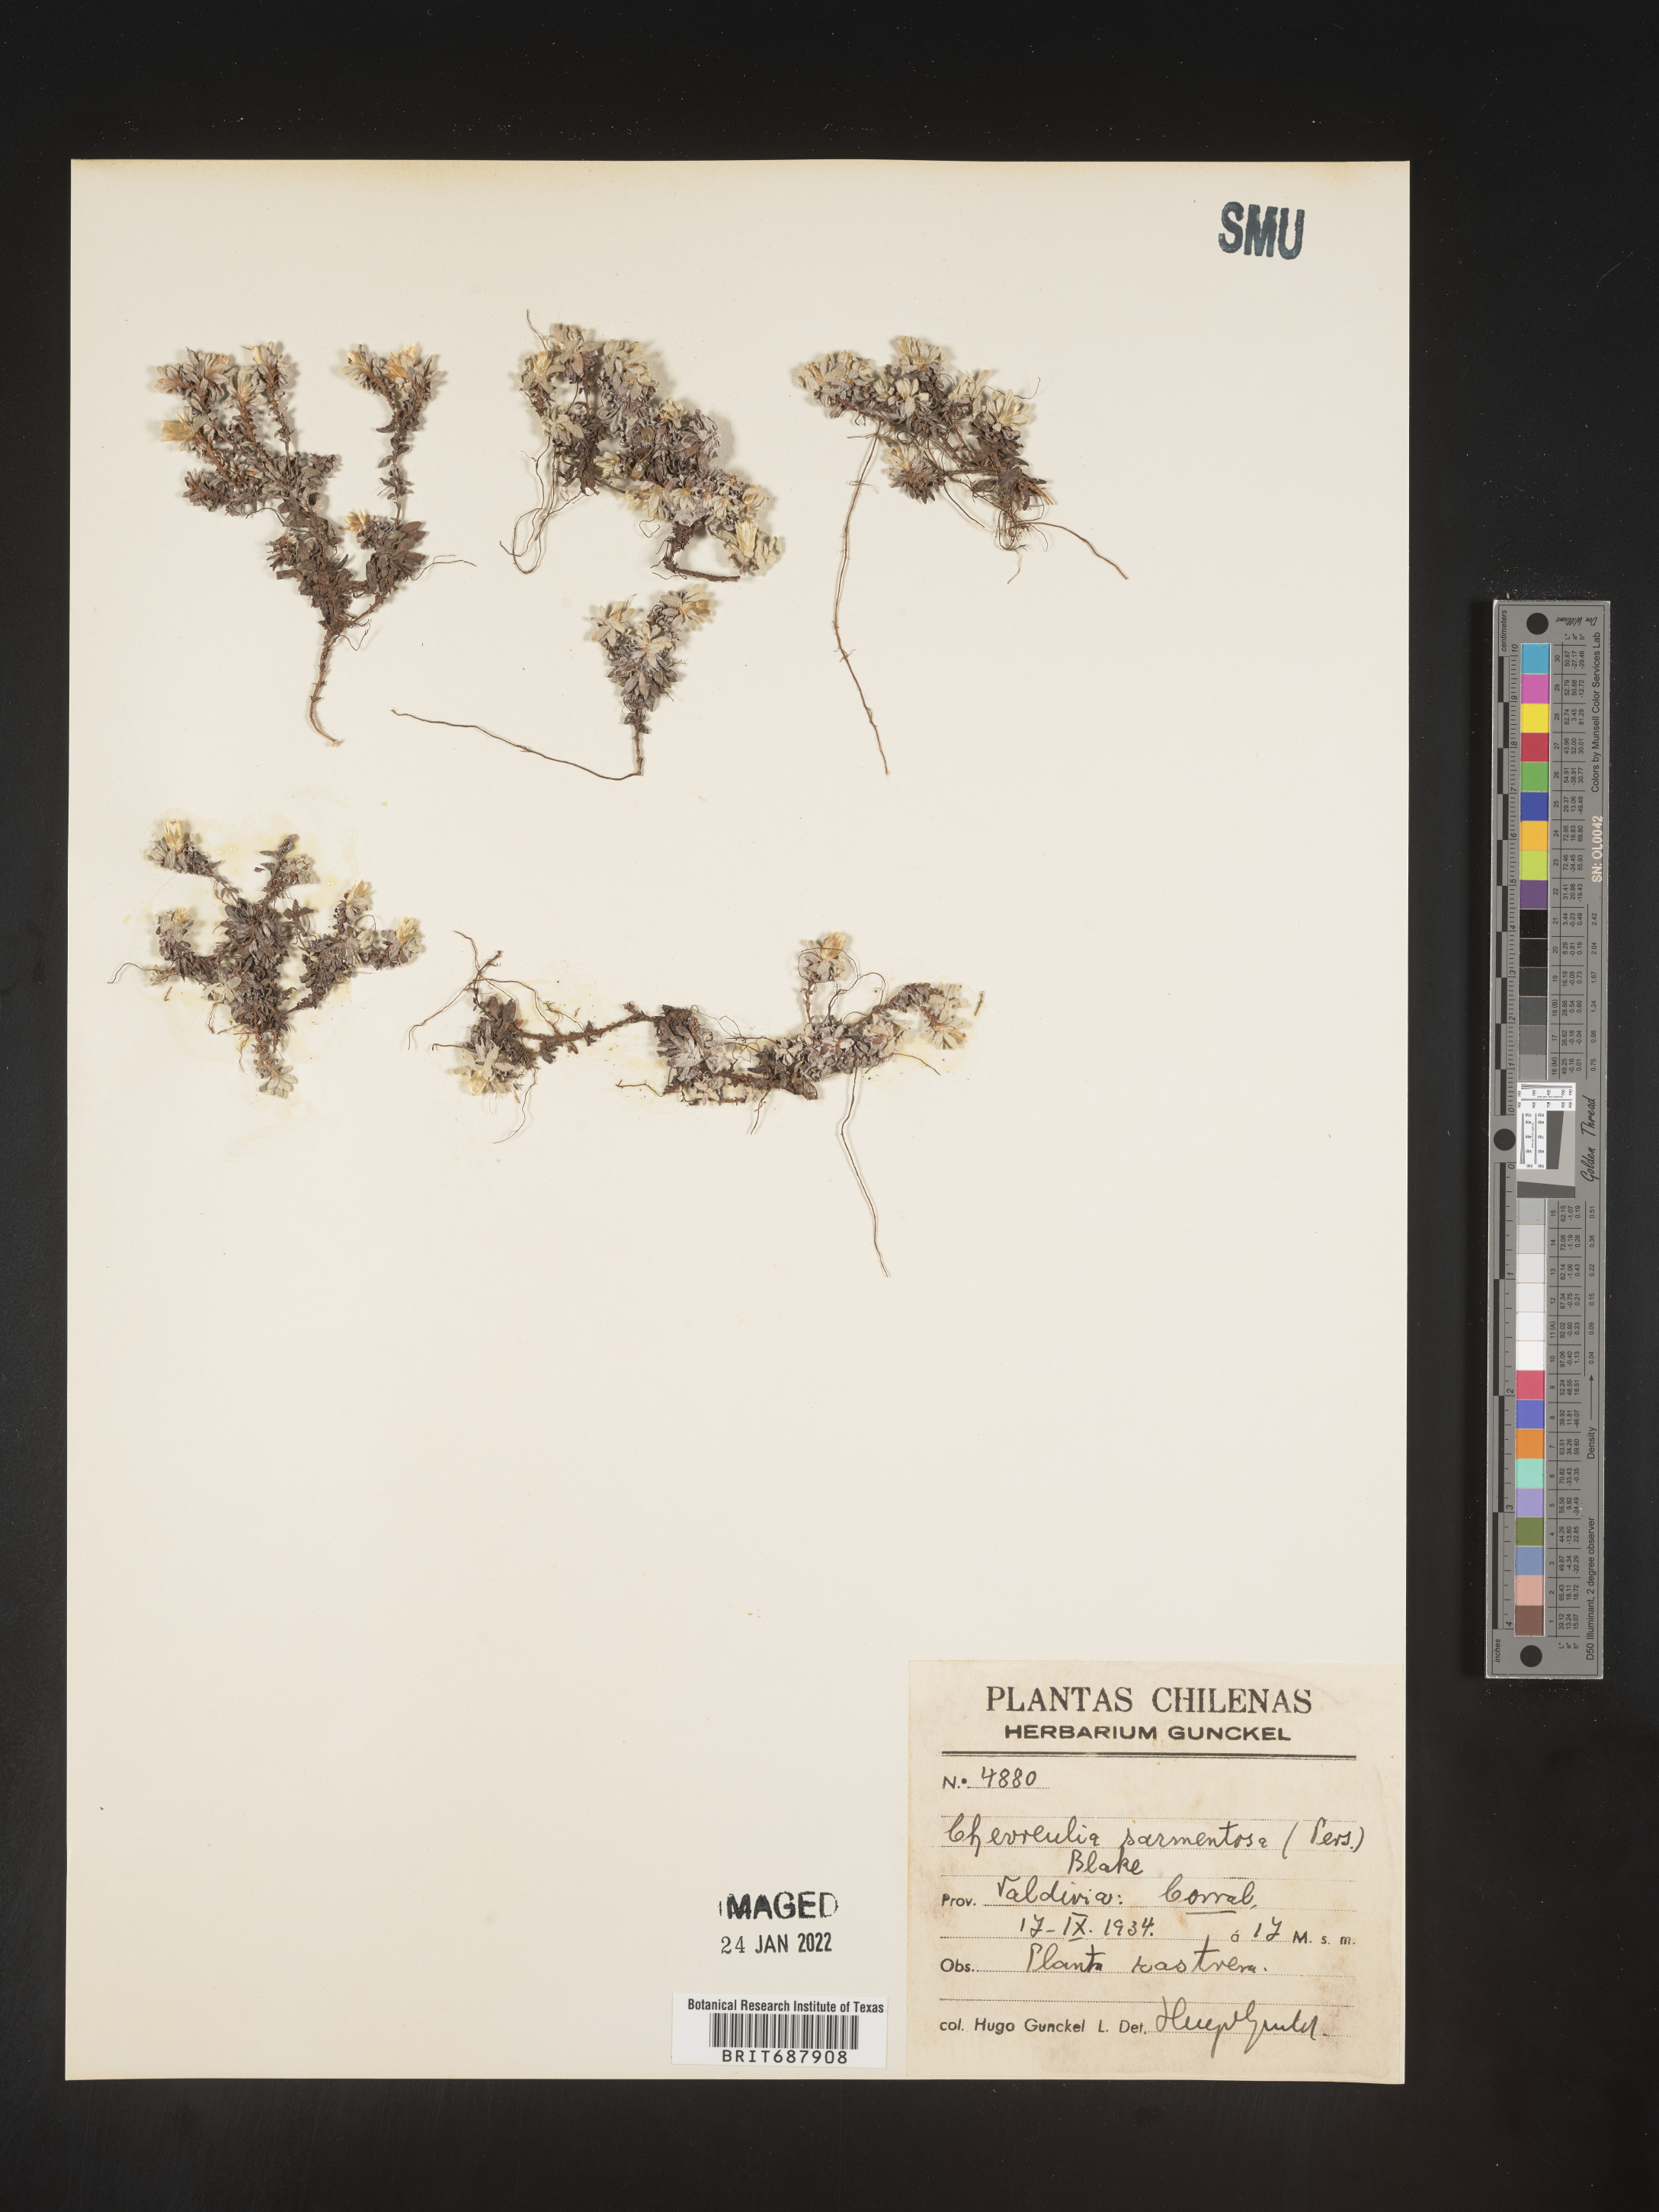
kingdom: Plantae
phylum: Tracheophyta
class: Magnoliopsida
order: Asterales
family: Asteraceae
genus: Chevreulia
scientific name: Chevreulia sarmentosa
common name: Sunflower
